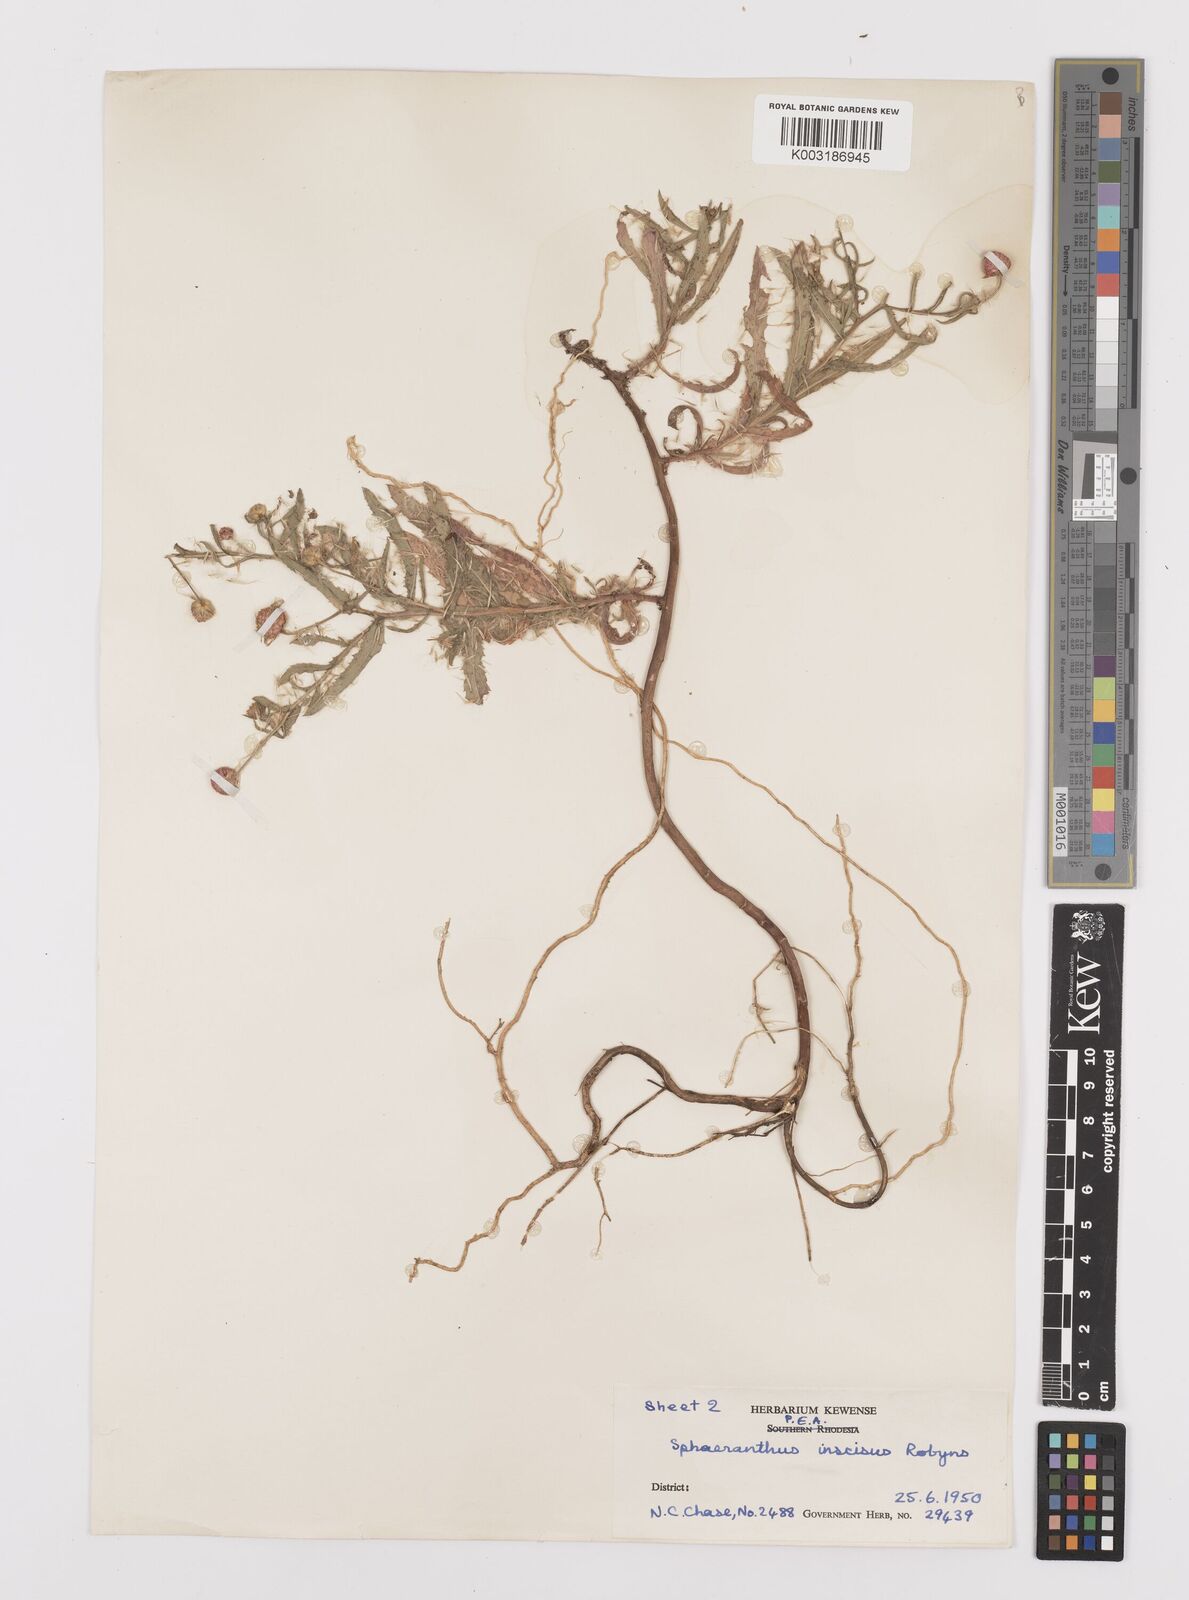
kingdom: Plantae
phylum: Tracheophyta
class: Magnoliopsida
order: Asterales
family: Asteraceae
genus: Sphaeranthus
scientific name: Sphaeranthus peduncularis
